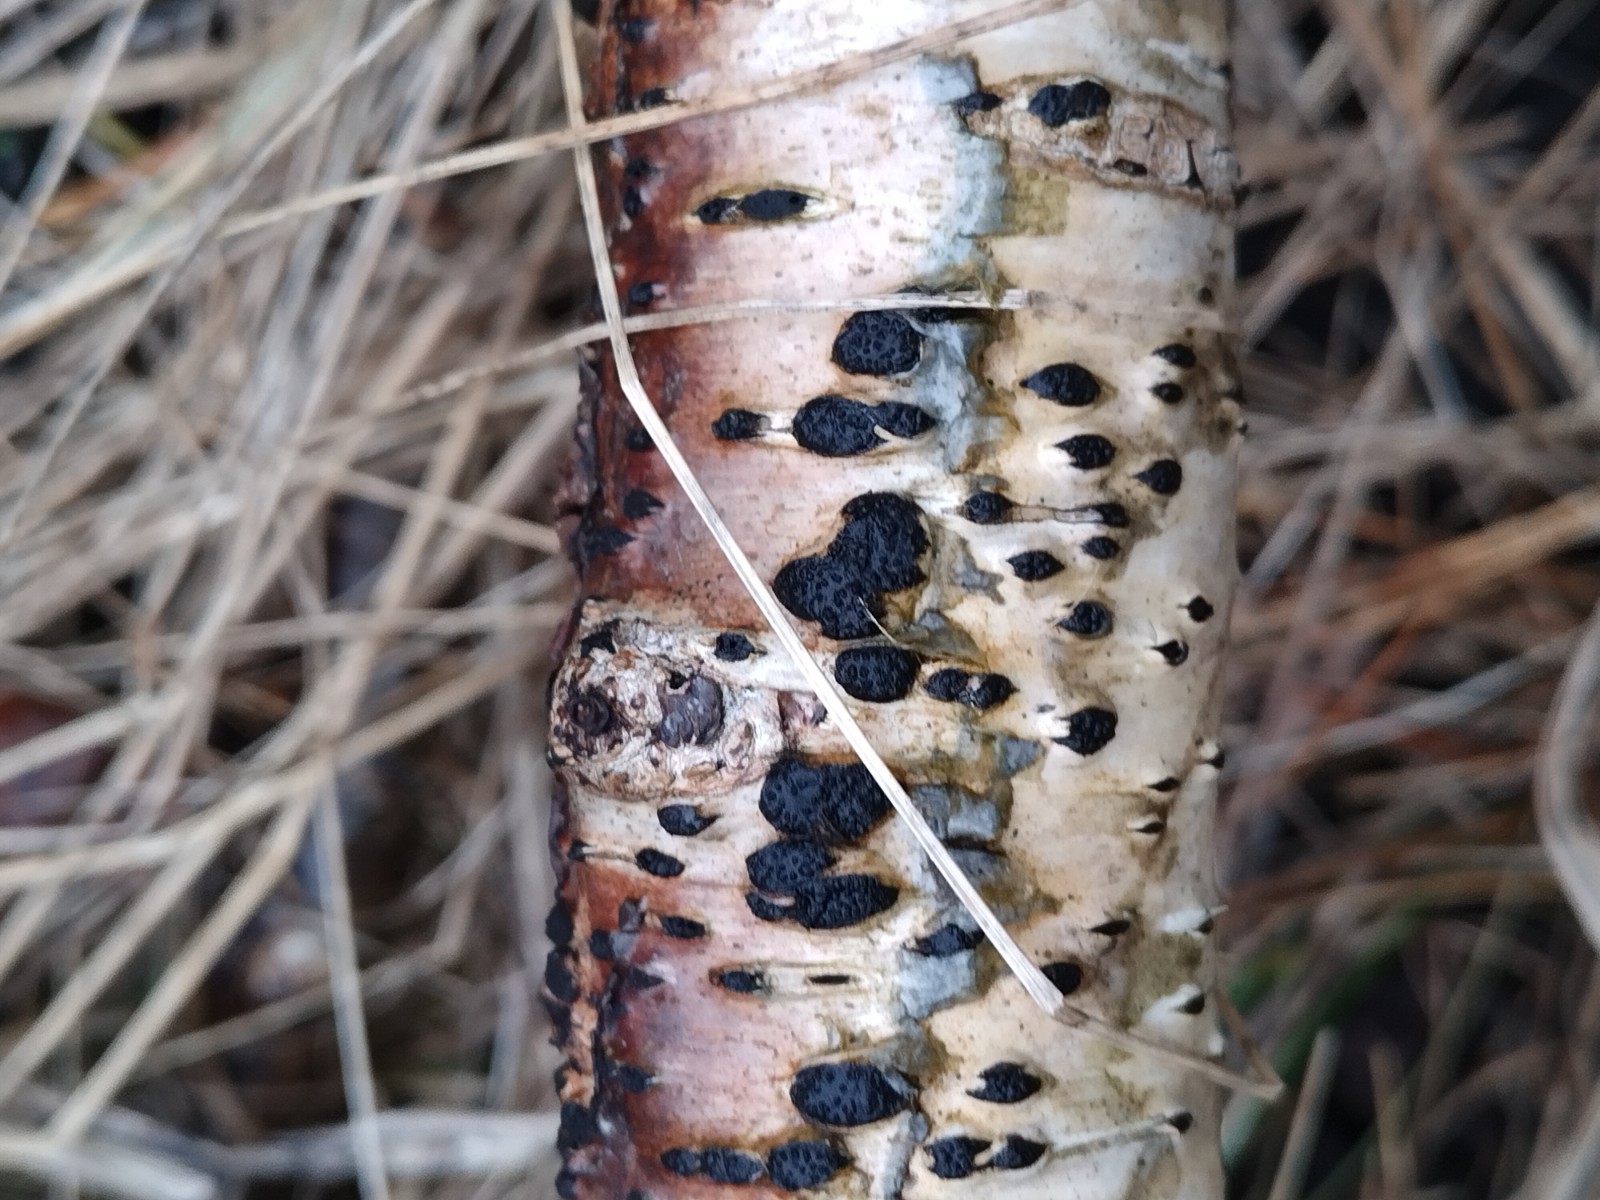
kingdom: Fungi
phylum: Ascomycota
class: Sordariomycetes
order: Xylariales
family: Hypoxylaceae
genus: Jackrogersella
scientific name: Jackrogersella multiformis
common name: foranderlig kulbær
